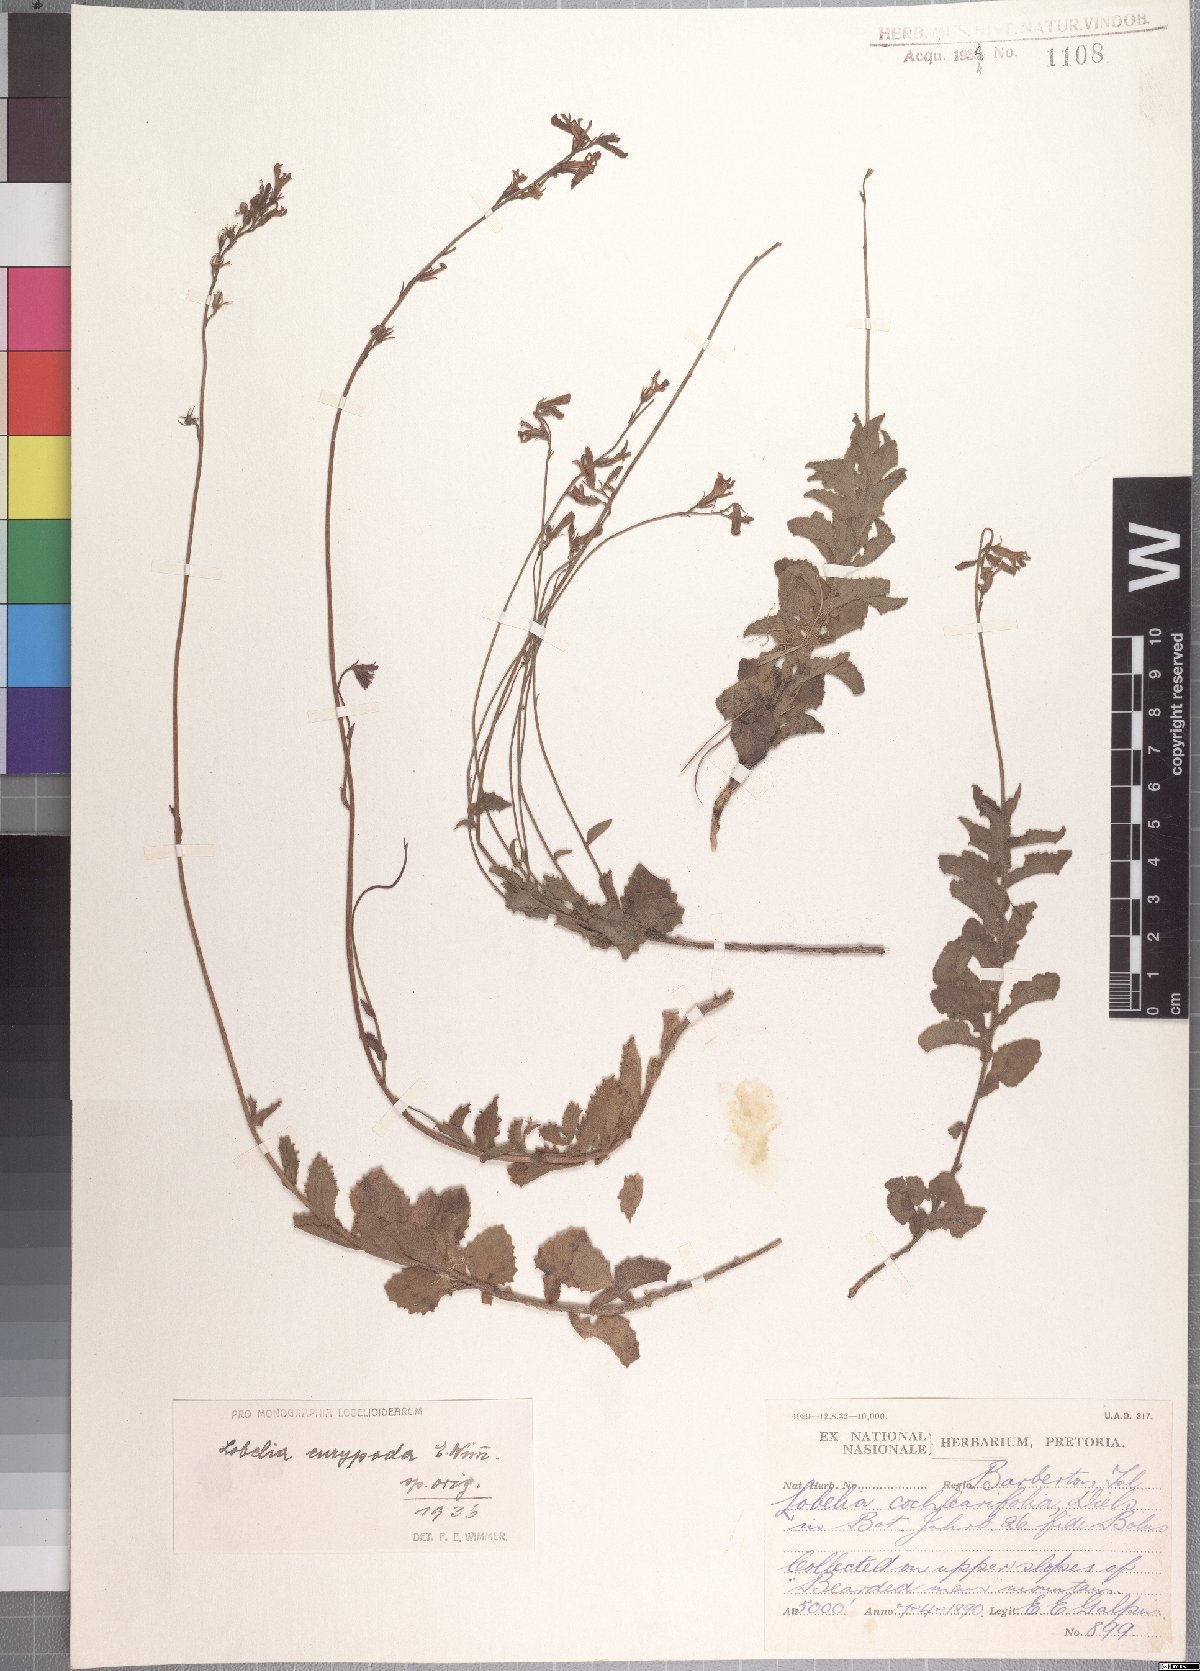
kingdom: Plantae
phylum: Tracheophyta
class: Magnoliopsida
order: Asterales
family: Campanulaceae
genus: Lobelia
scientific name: Lobelia eurypoda
